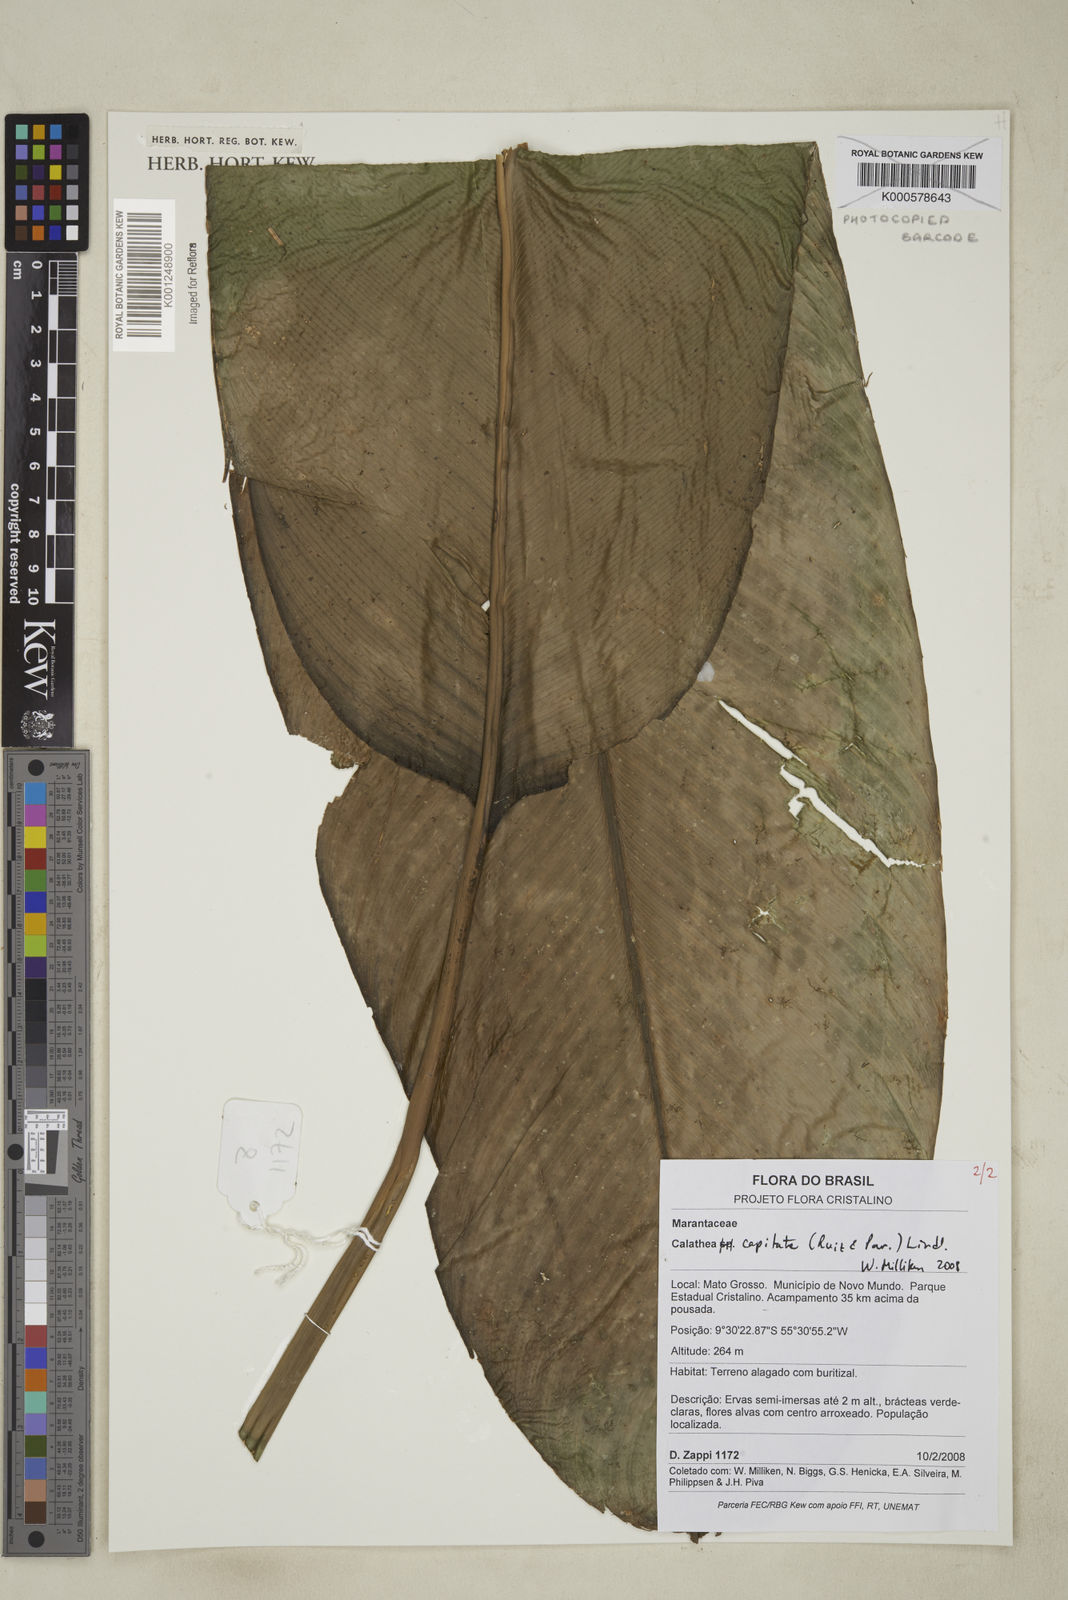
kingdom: Plantae
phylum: Tracheophyta
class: Liliopsida
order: Zingiberales
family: Marantaceae
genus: Goeppertia
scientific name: Goeppertia capitata
